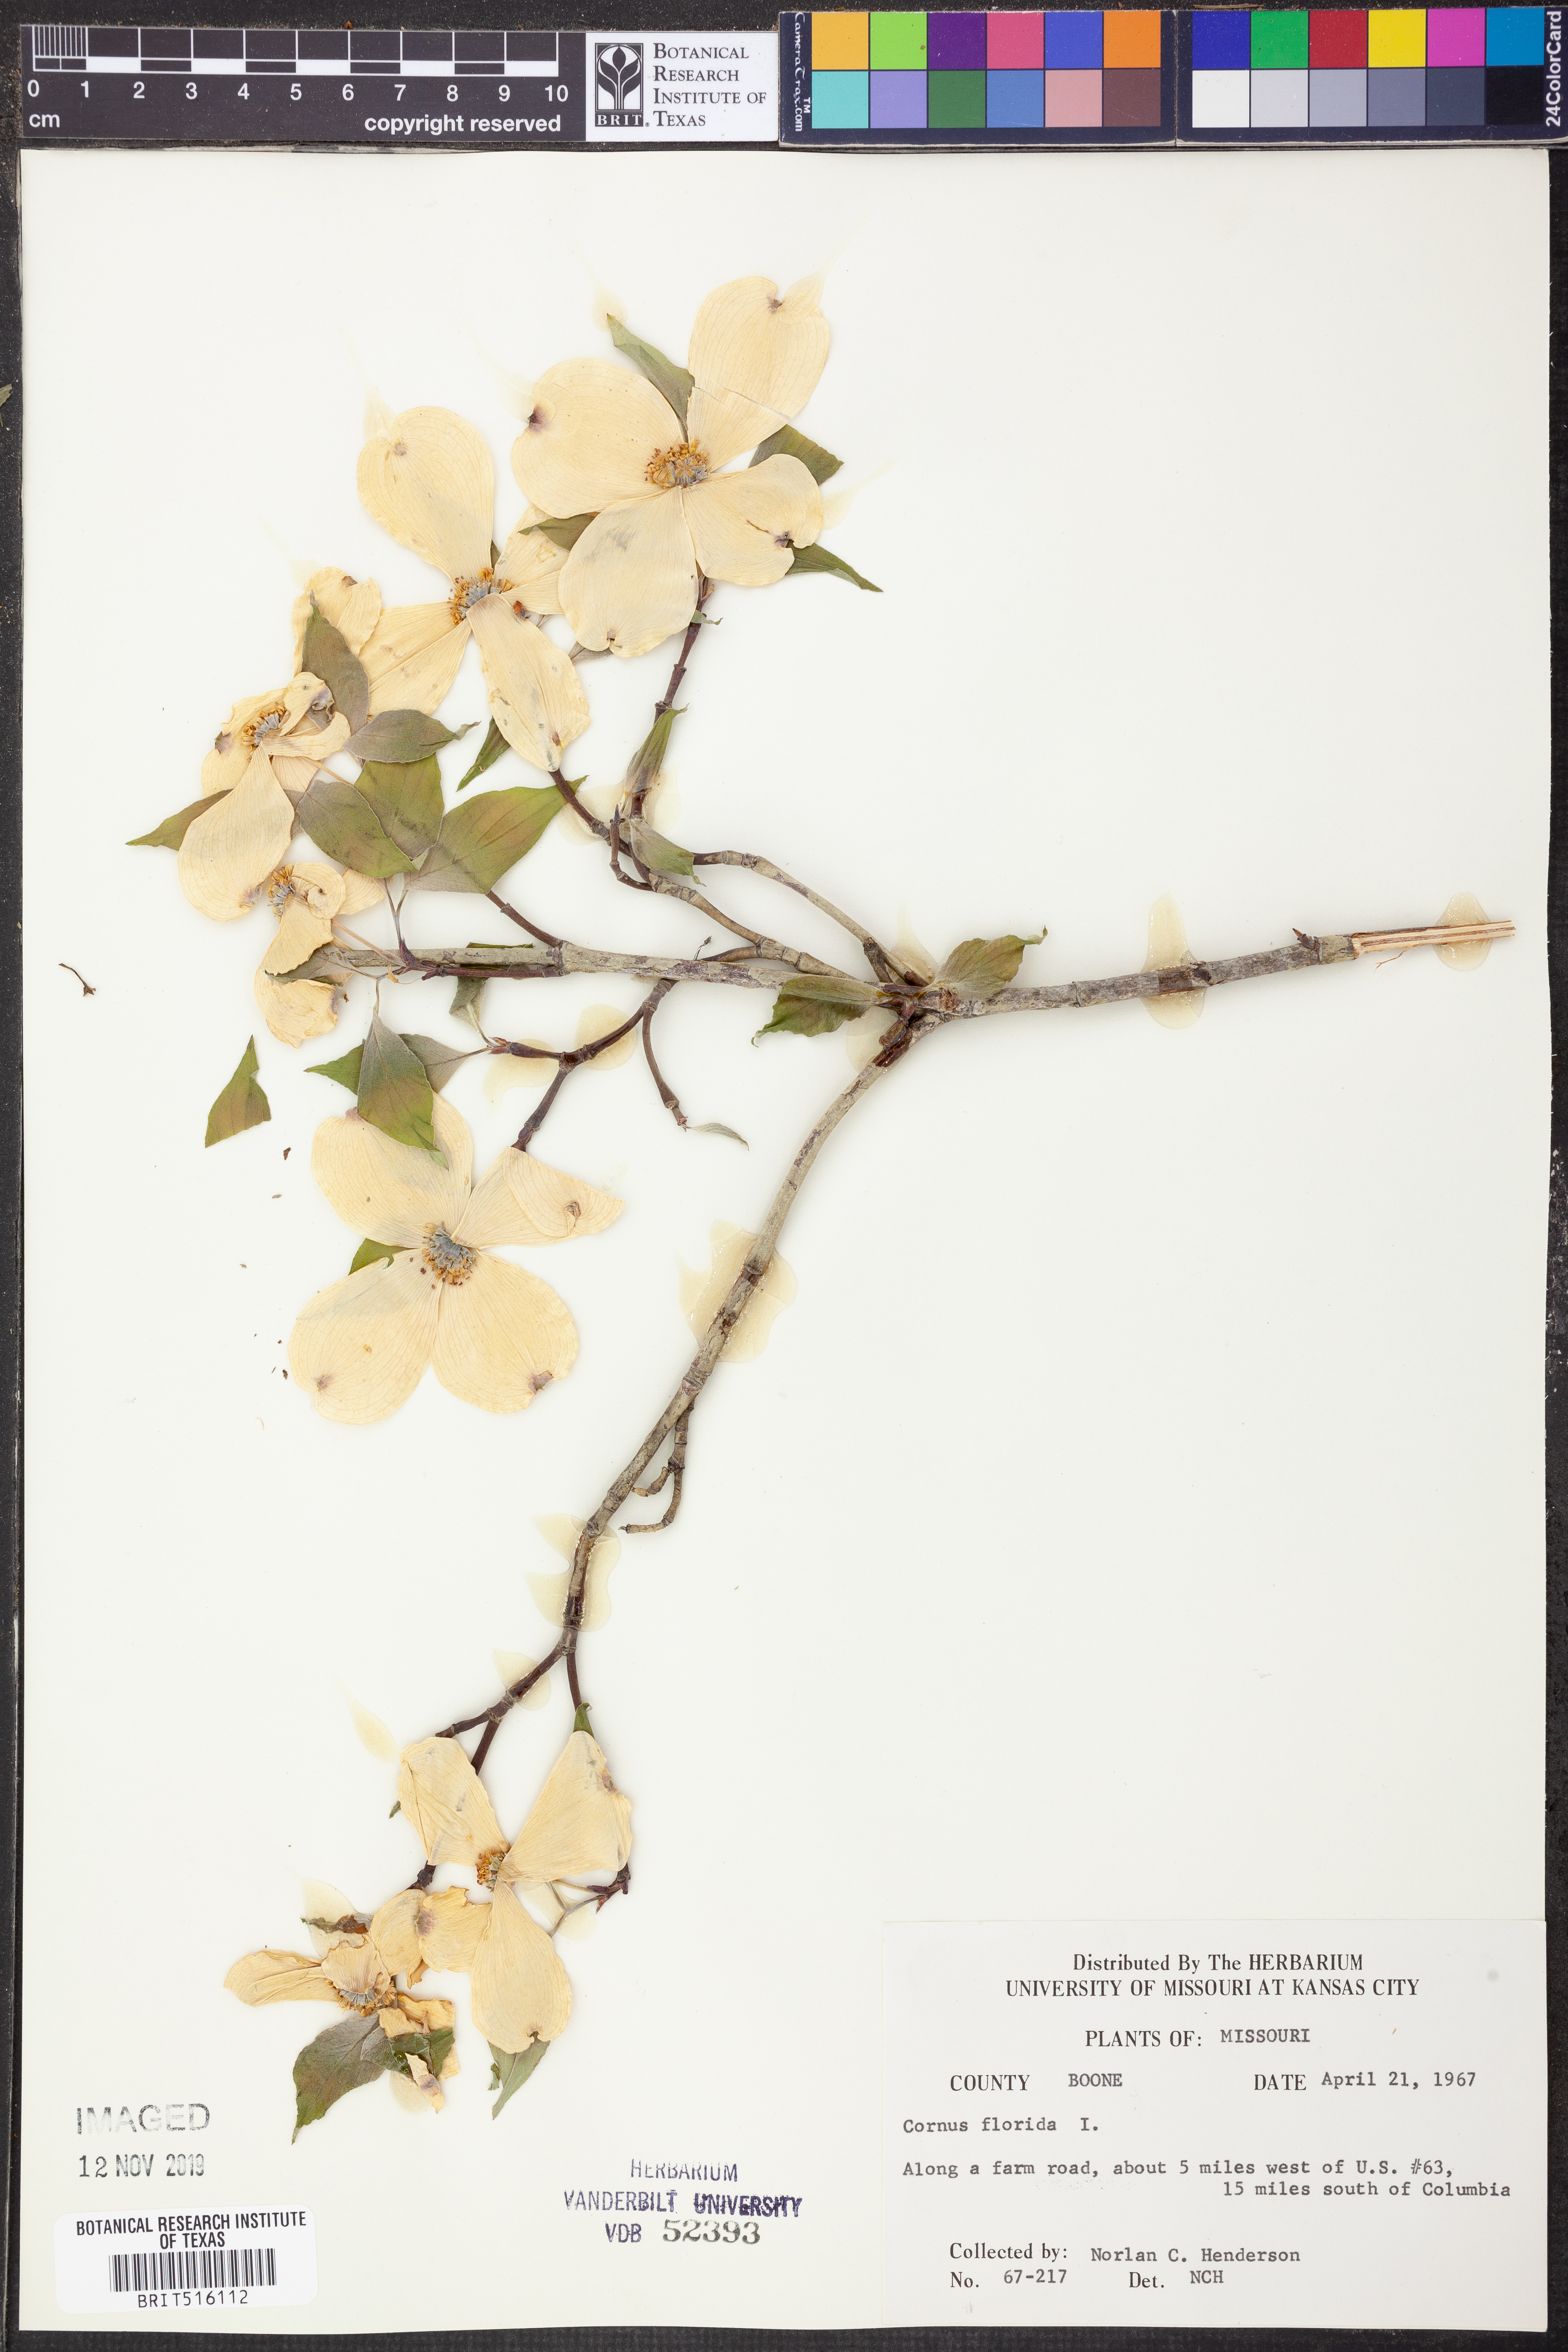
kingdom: Plantae
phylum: Tracheophyta
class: Magnoliopsida
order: Cornales
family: Cornaceae
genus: Cornus
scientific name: Cornus florida
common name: Flowering dogwood
